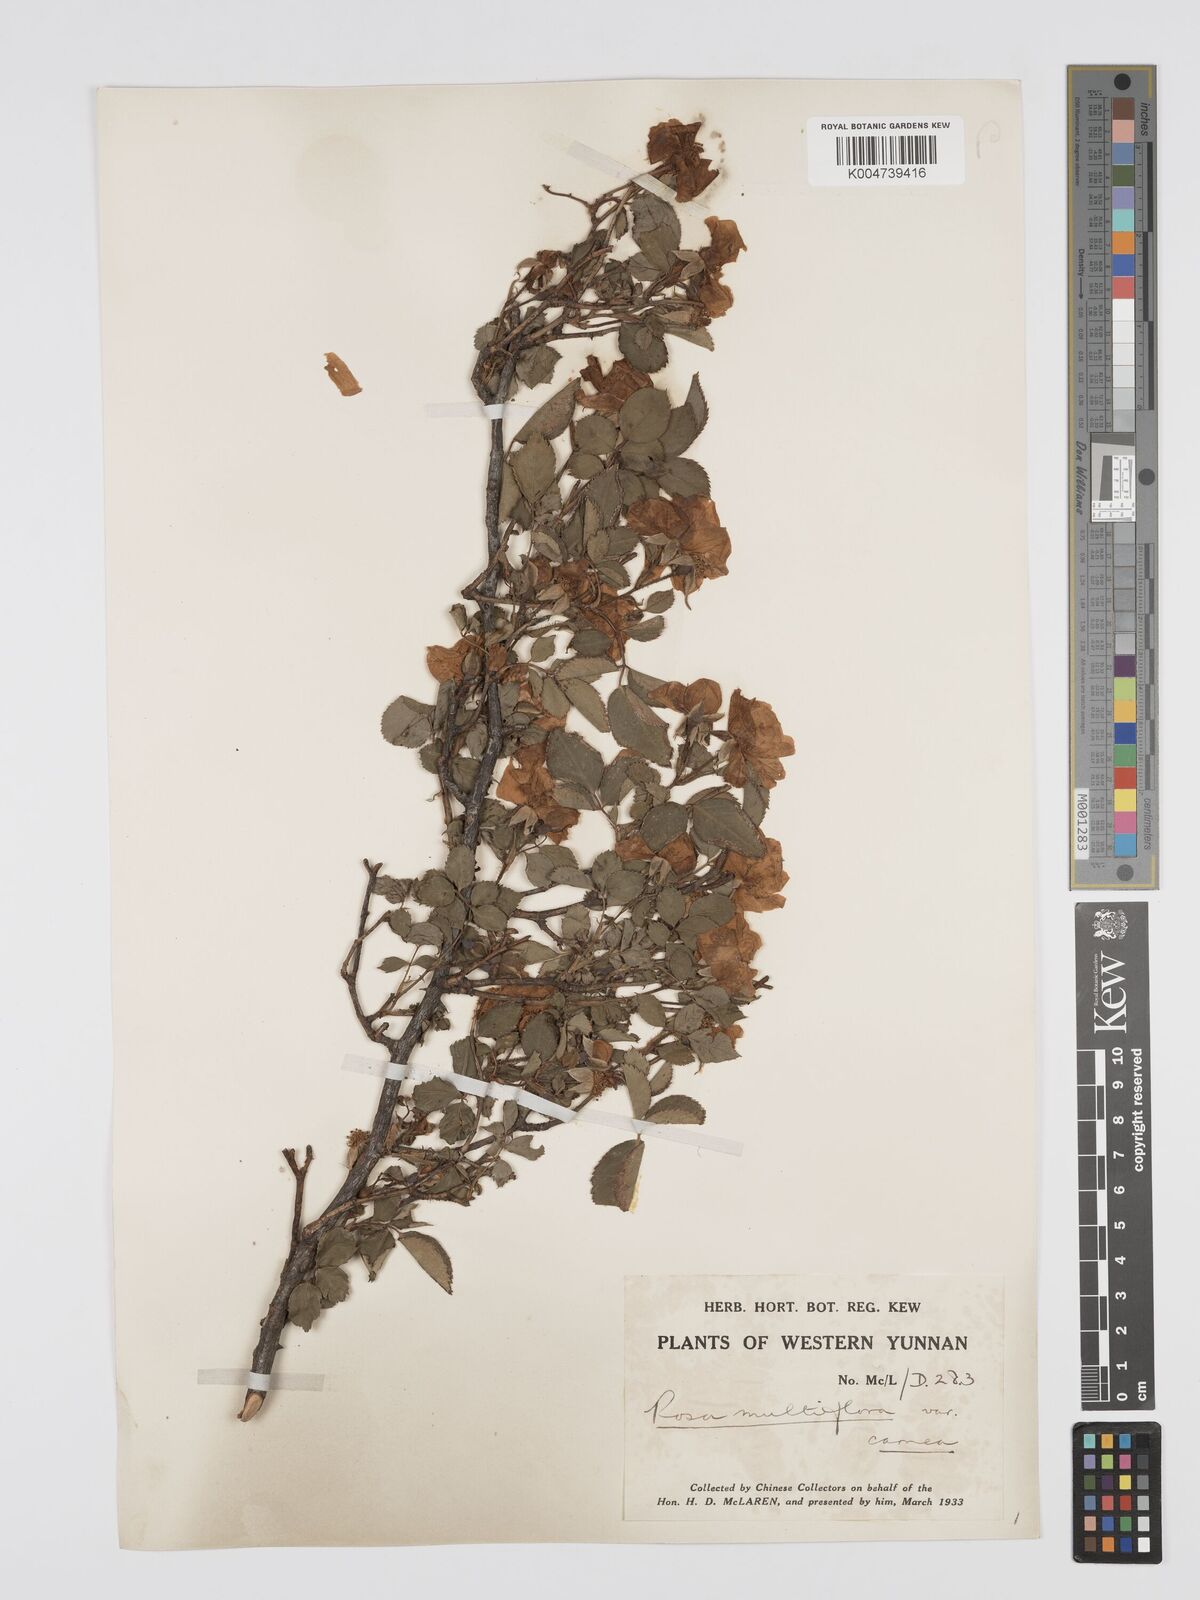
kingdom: Plantae
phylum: Tracheophyta
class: Magnoliopsida
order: Rosales
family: Rosaceae
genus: Rosa
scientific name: Rosa multiflora
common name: Multiflora rose
